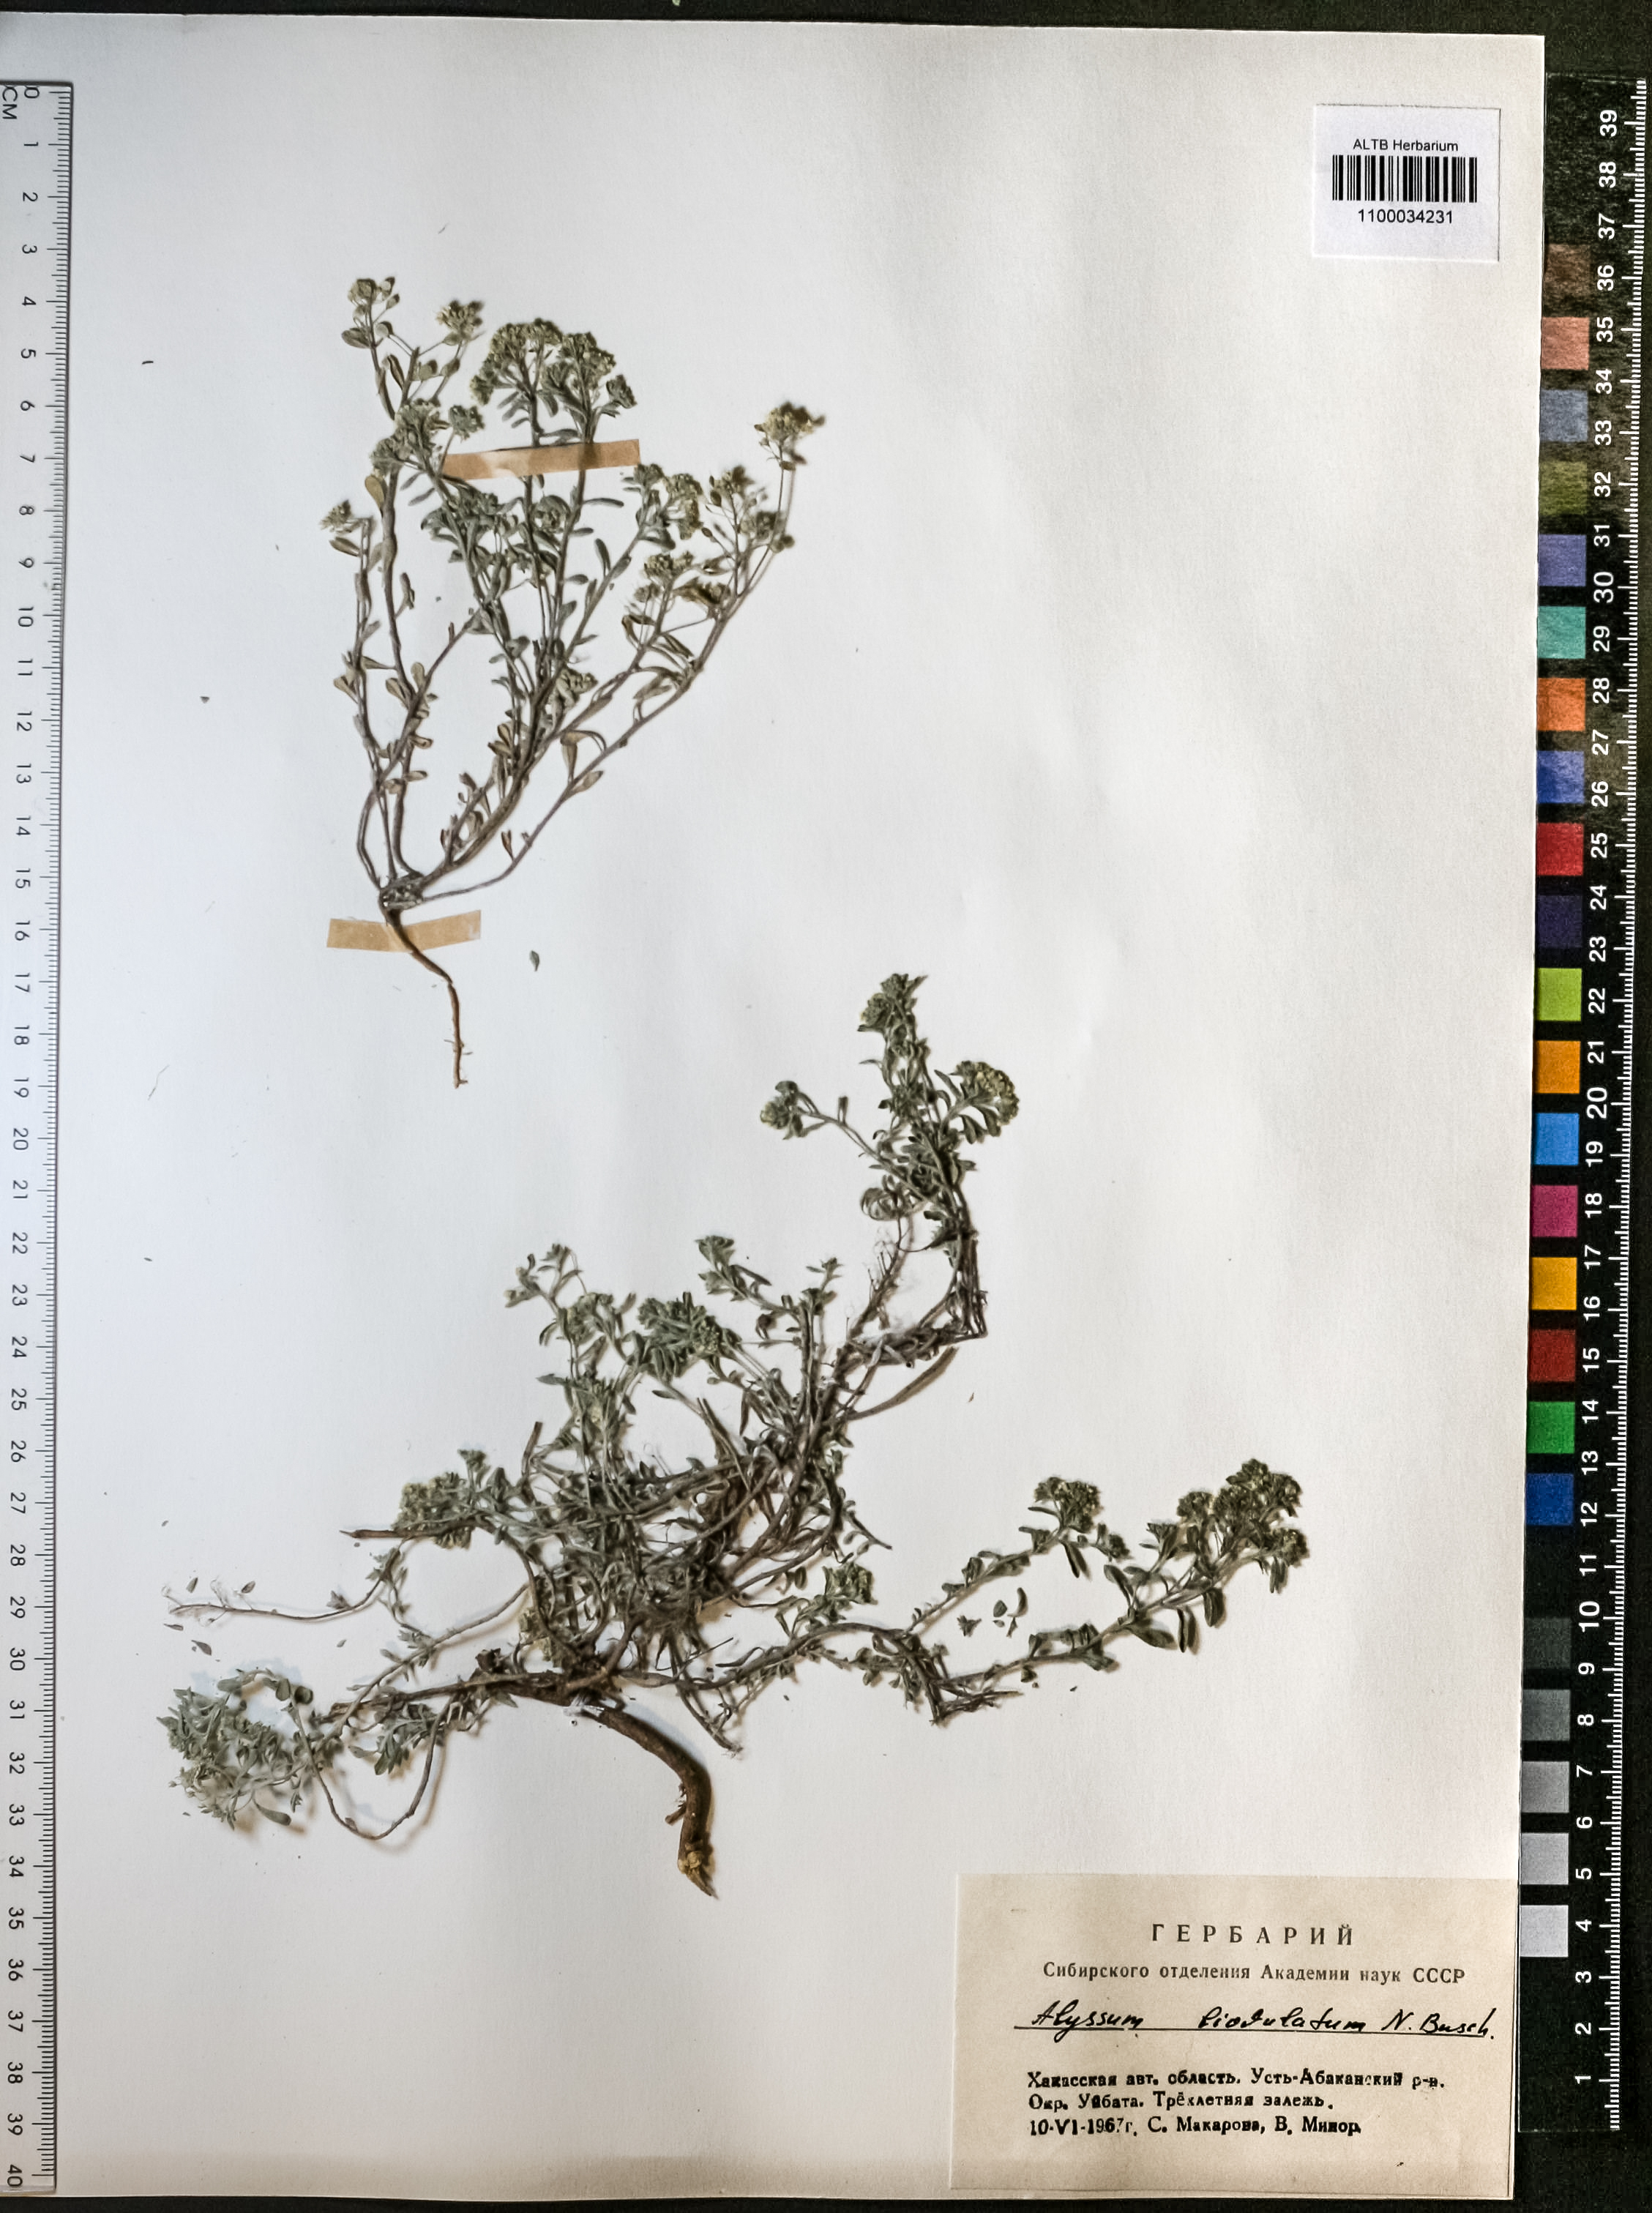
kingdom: Plantae
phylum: Tracheophyta
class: Magnoliopsida
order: Brassicales
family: Brassicaceae
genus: Odontarrhena
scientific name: Odontarrhena obovata
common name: American alyssum
